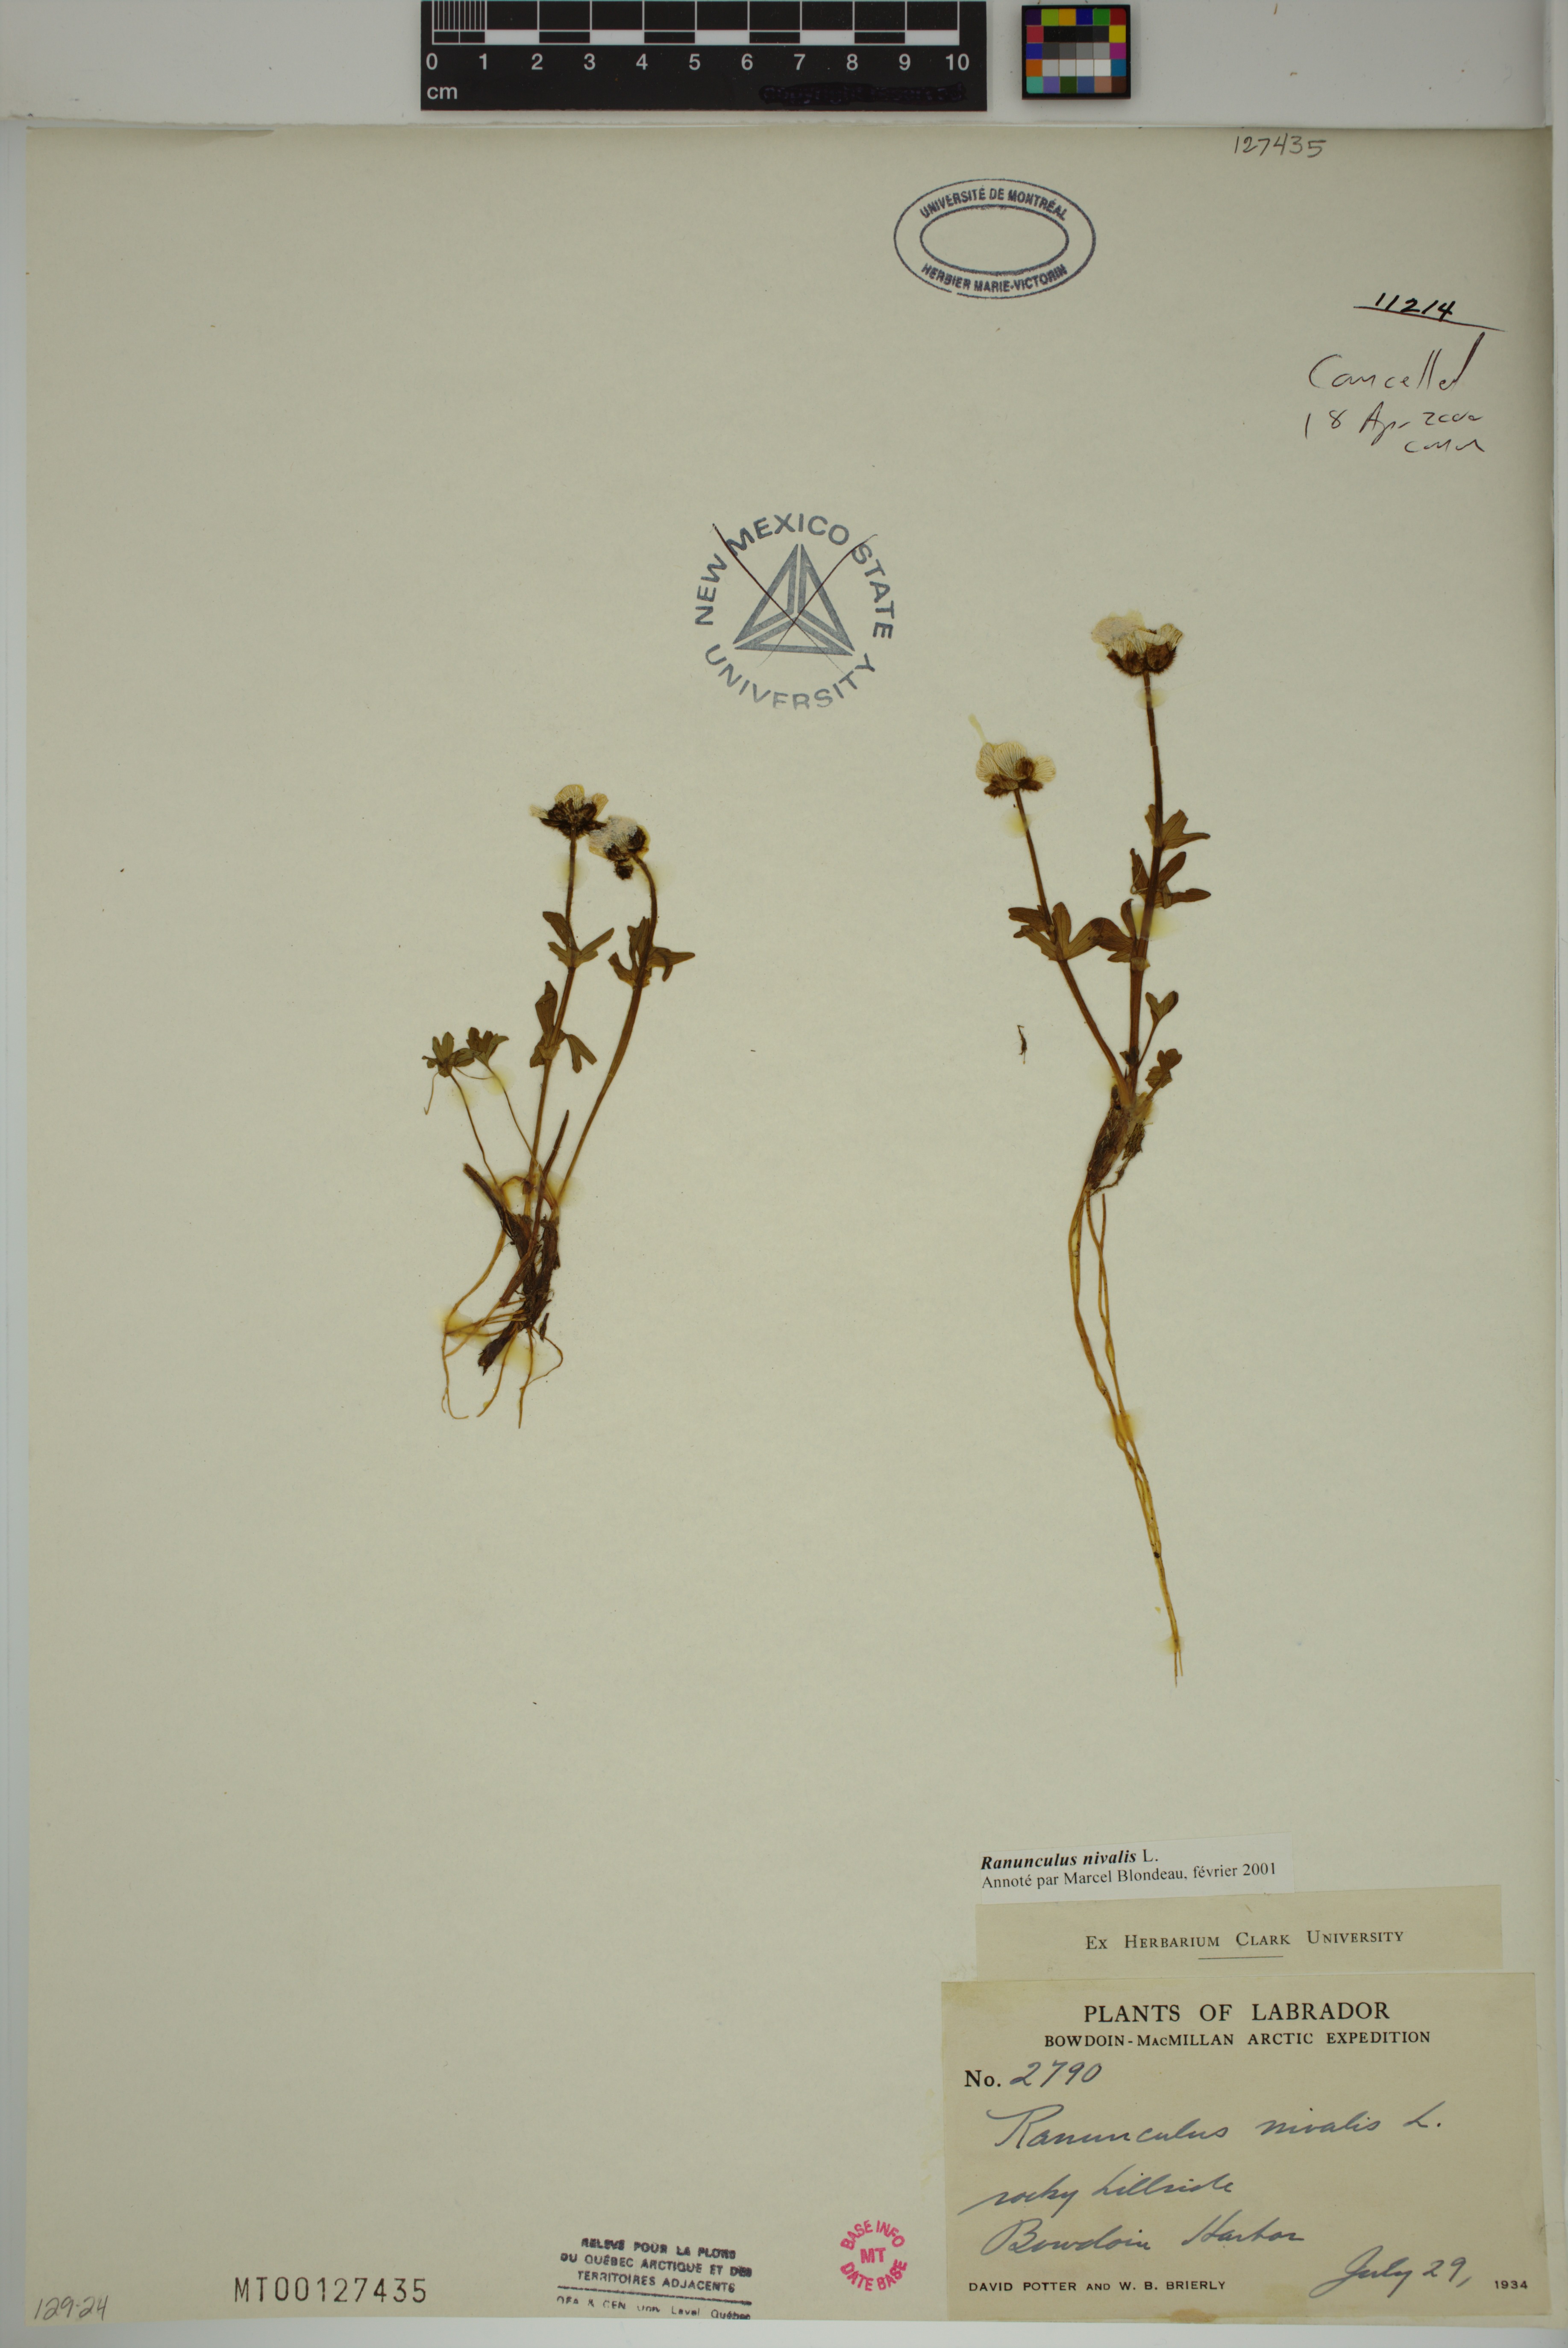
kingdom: Plantae
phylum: Tracheophyta
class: Magnoliopsida
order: Ranunculales
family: Ranunculaceae
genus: Ranunculus
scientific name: Ranunculus nivalis
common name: Snow buttercup
